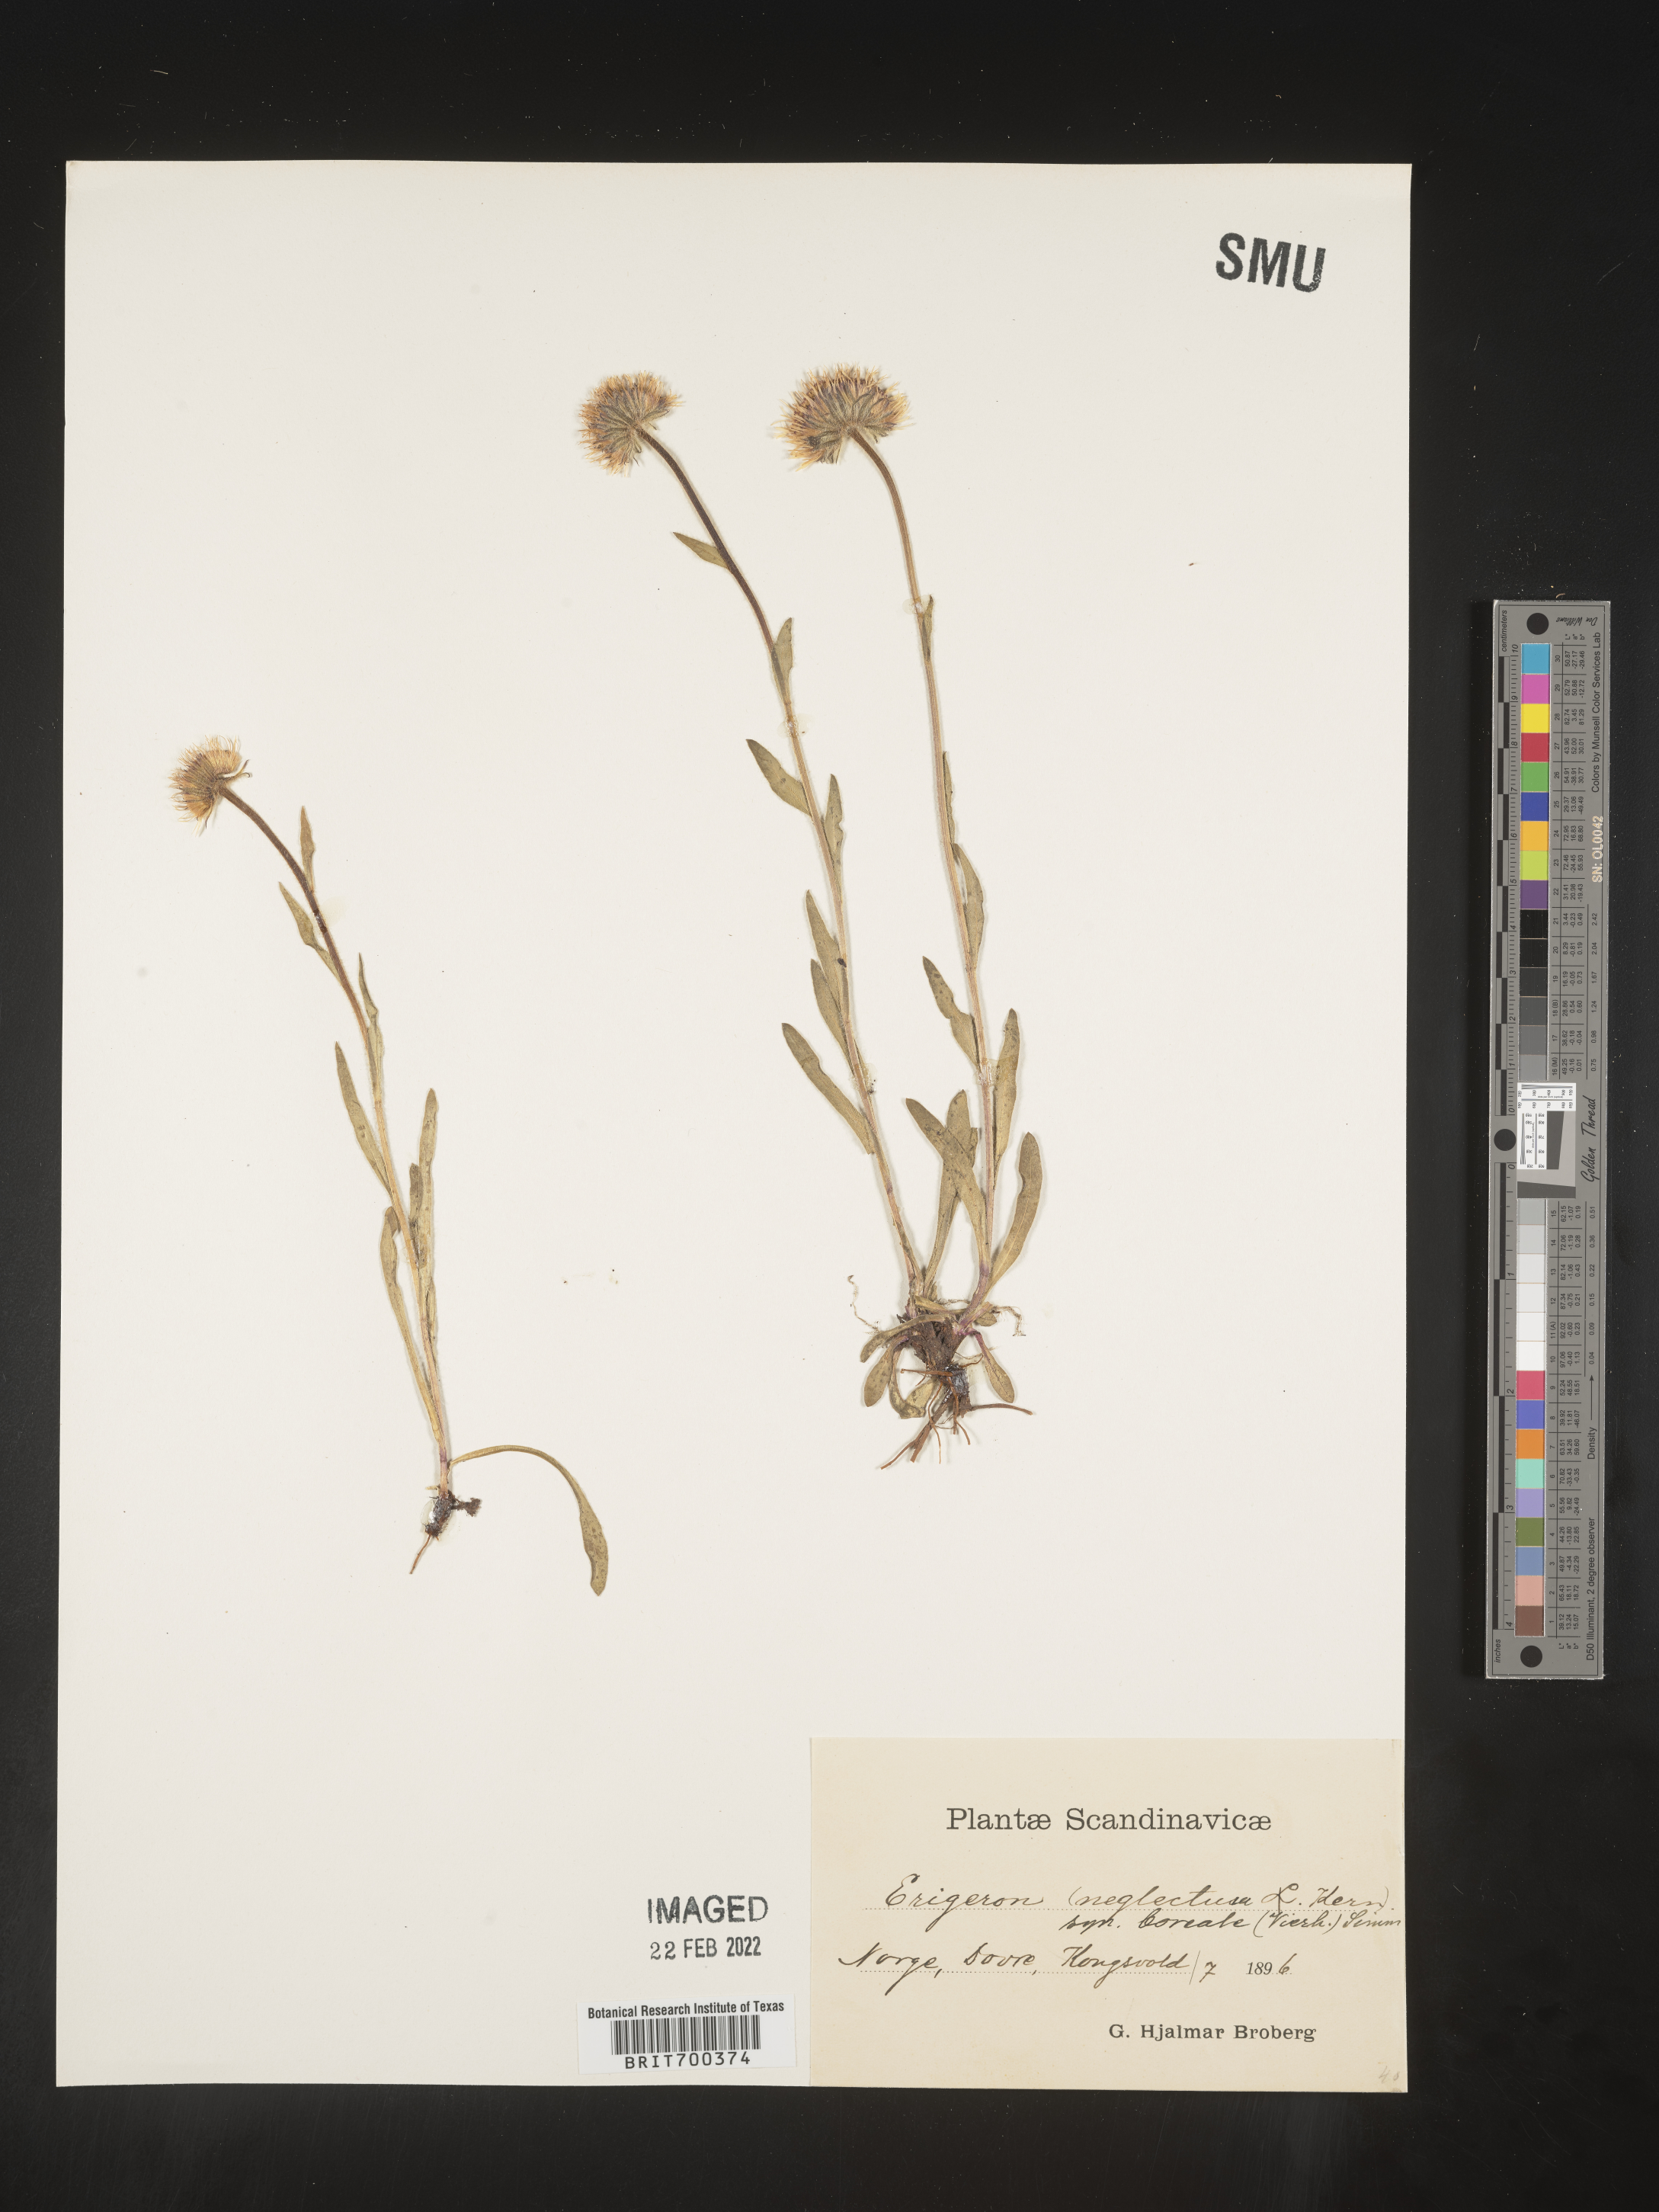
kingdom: Plantae
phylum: Tracheophyta
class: Magnoliopsida
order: Asterales
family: Asteraceae
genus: Erigeron
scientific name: Erigeron
